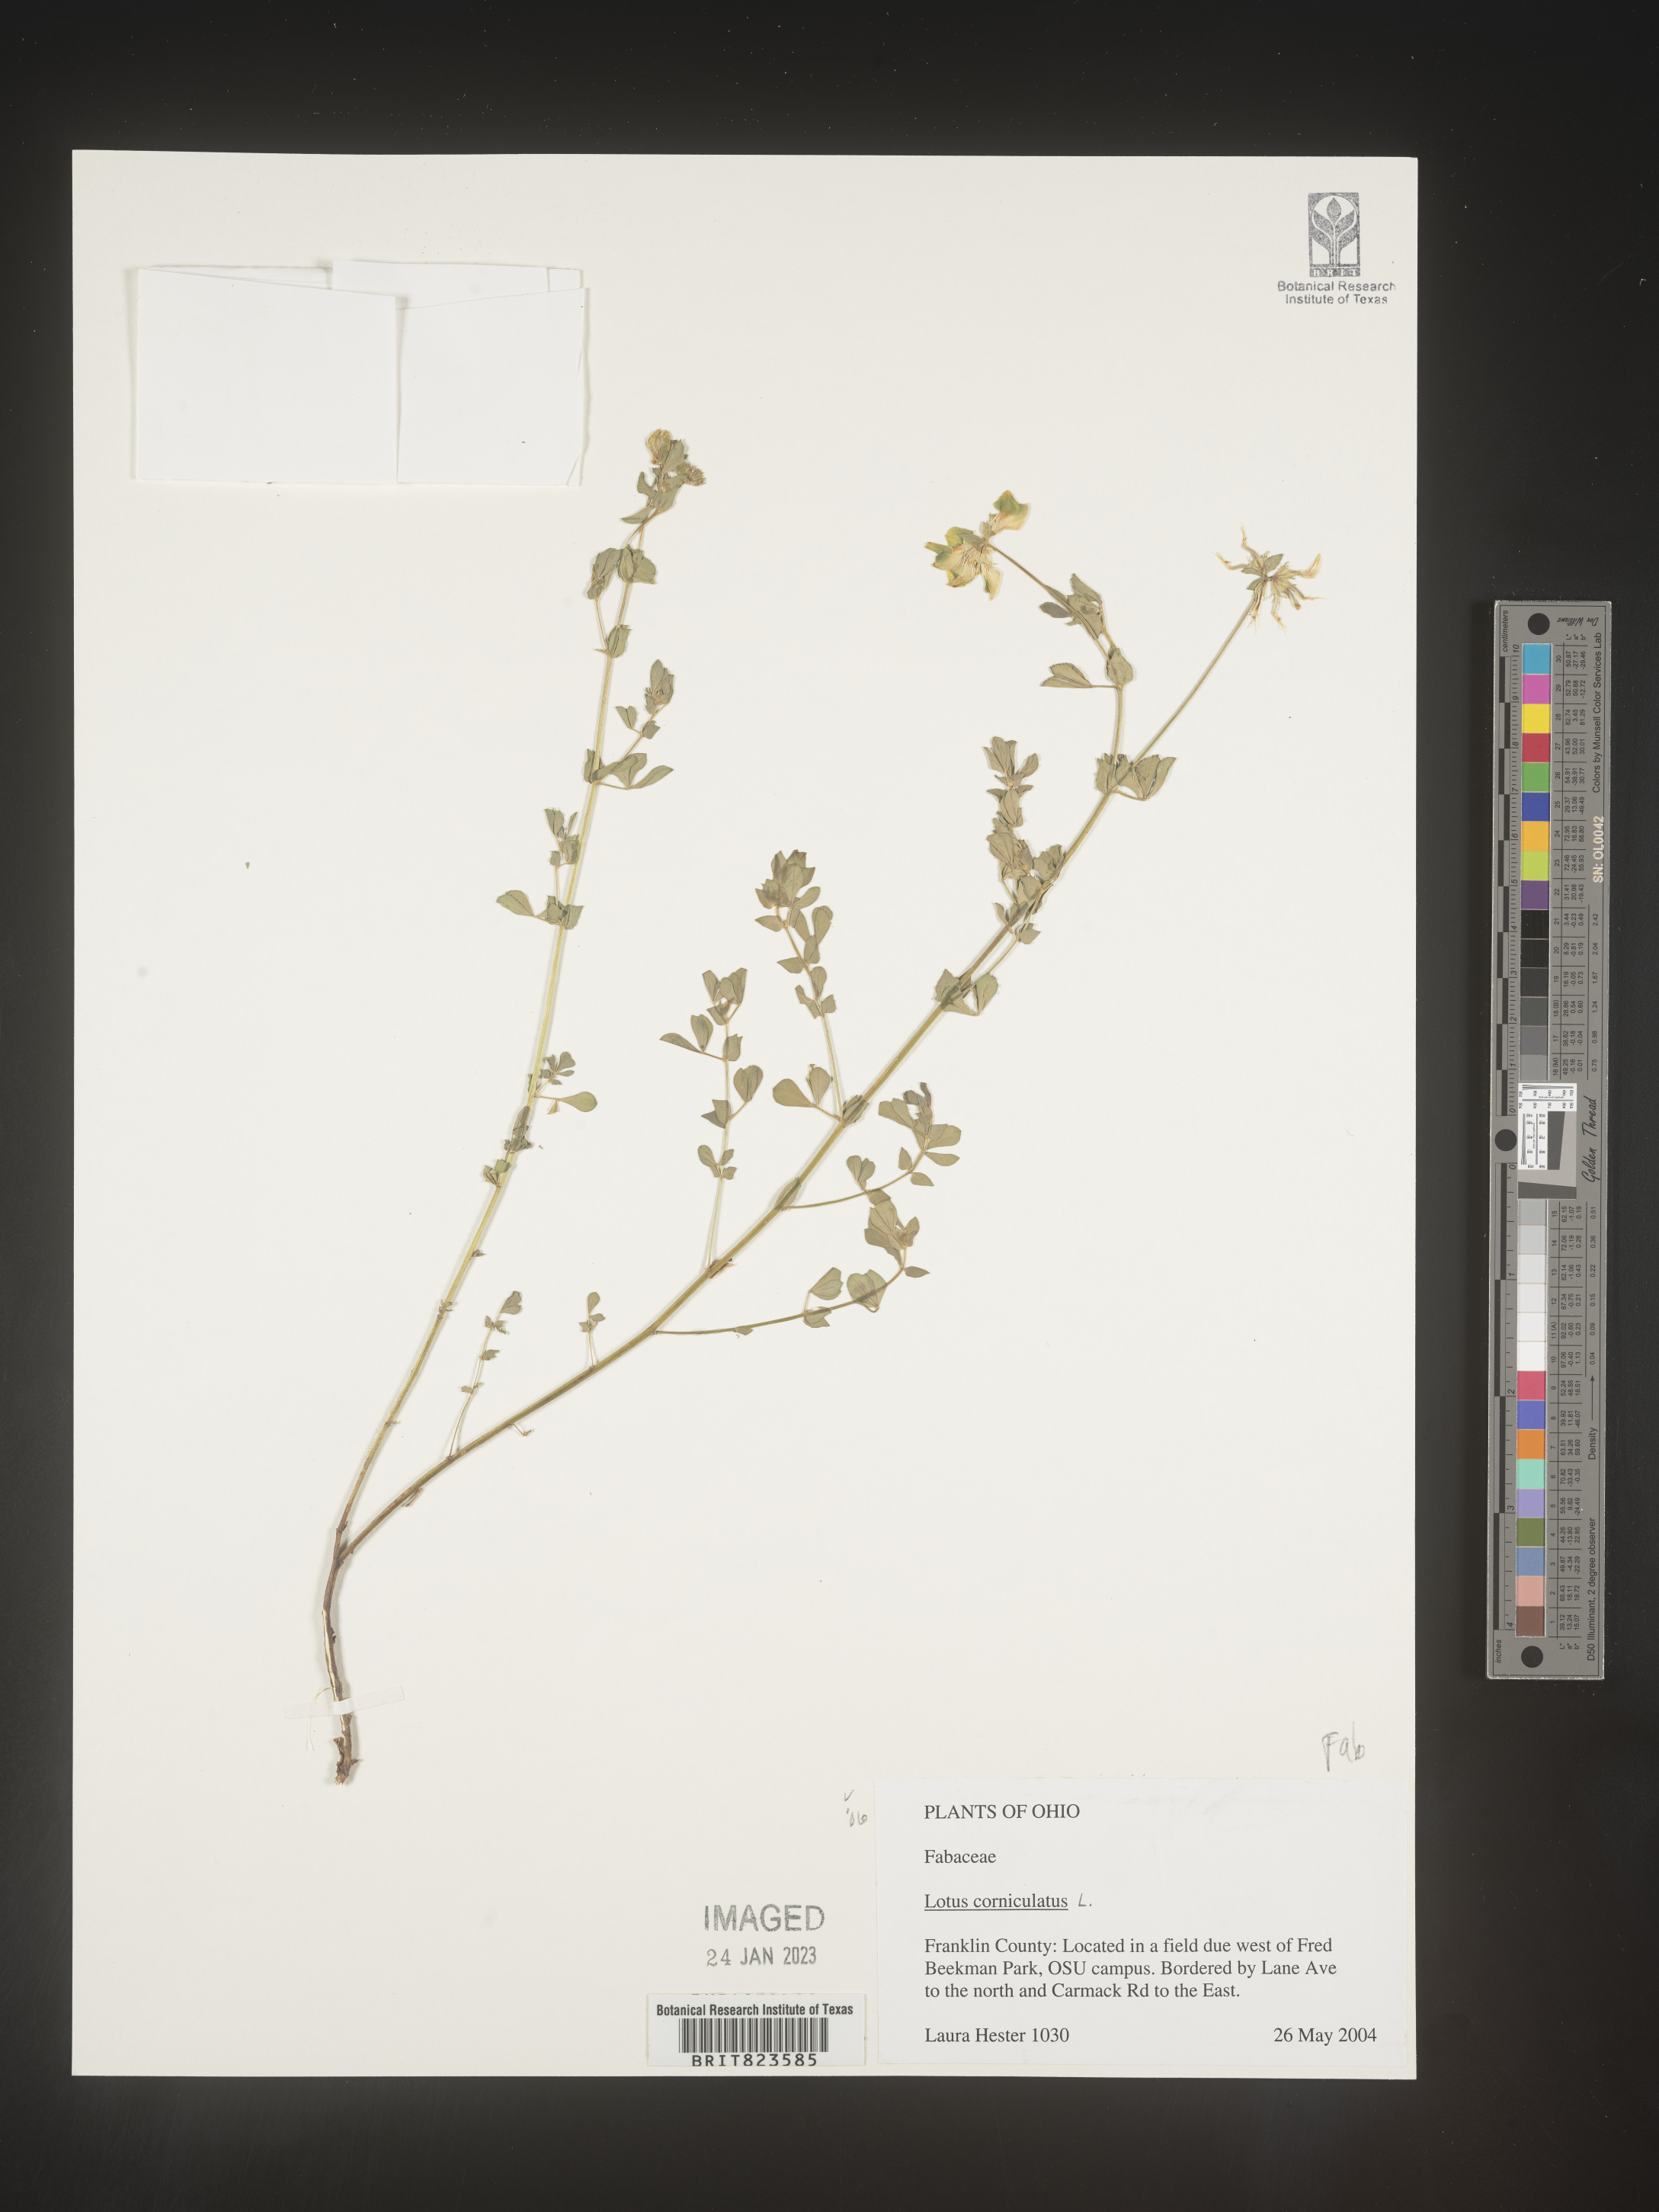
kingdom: Plantae
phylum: Tracheophyta
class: Magnoliopsida
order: Fabales
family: Fabaceae
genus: Lotus
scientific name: Lotus corniculatus
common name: Common bird's-foot-trefoil
